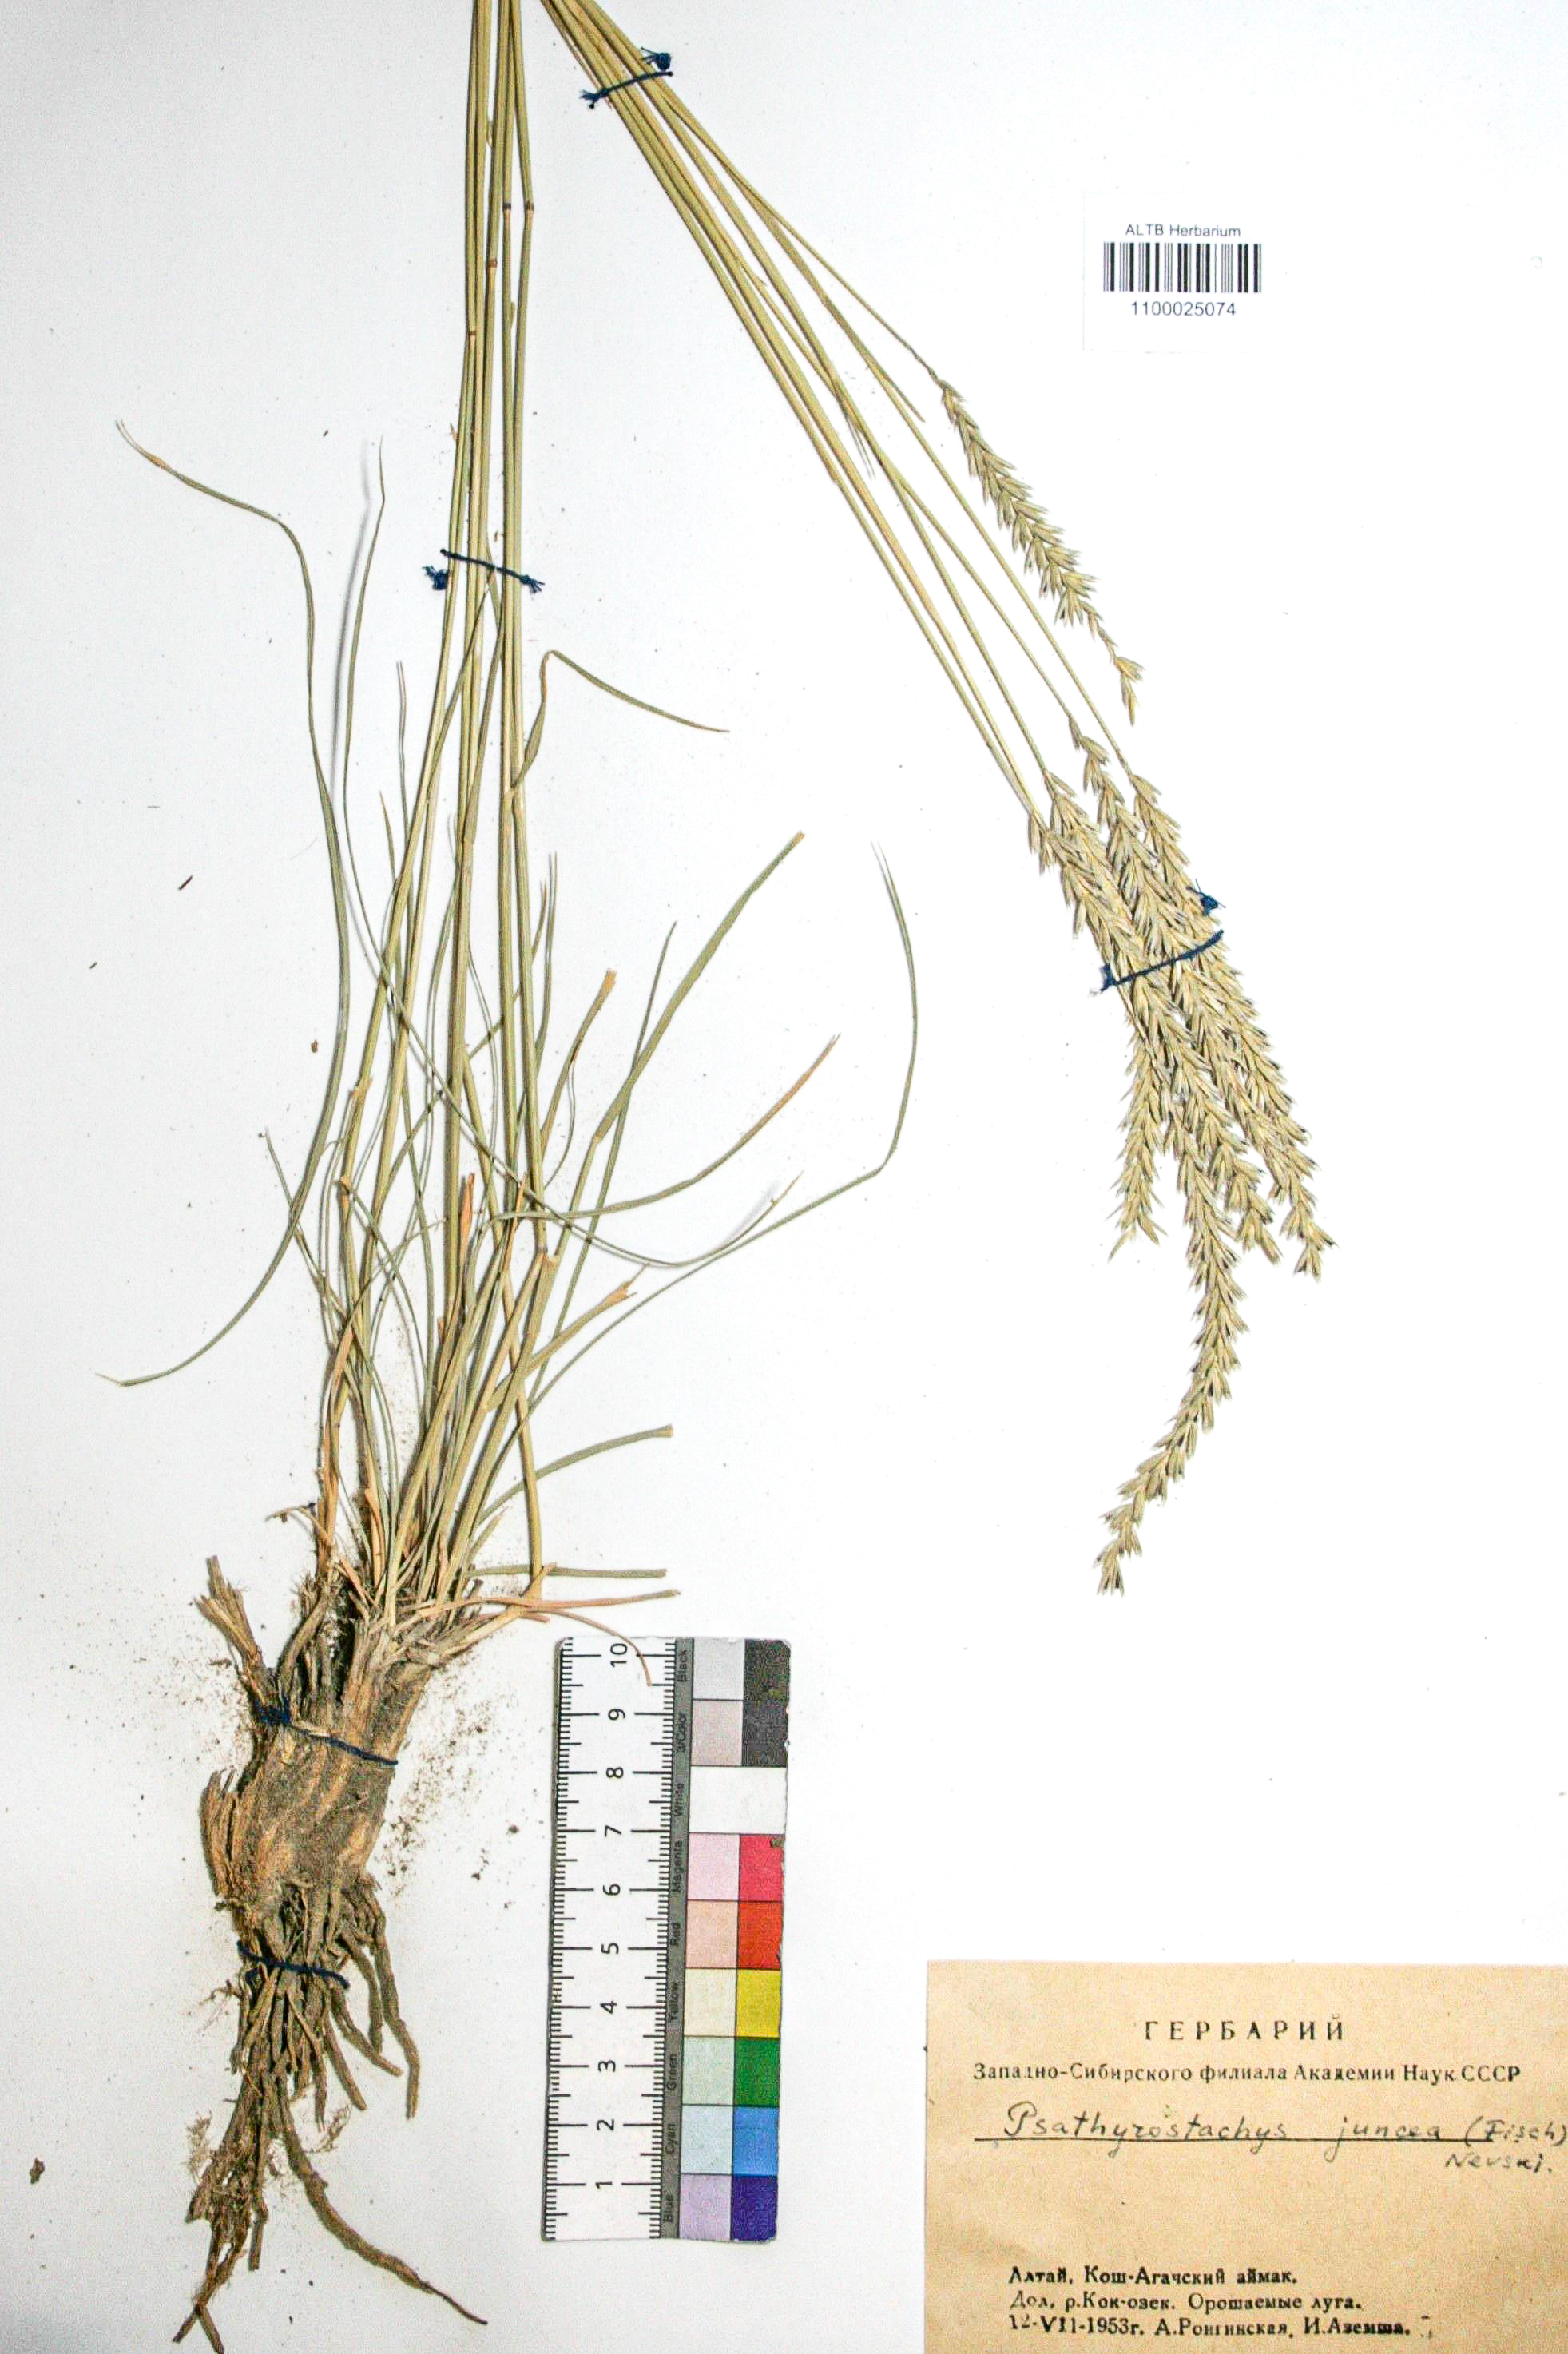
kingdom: Plantae
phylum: Tracheophyta
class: Liliopsida
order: Poales
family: Poaceae
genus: Psathyrostachys
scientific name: Psathyrostachys juncea
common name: Russian wildrye
